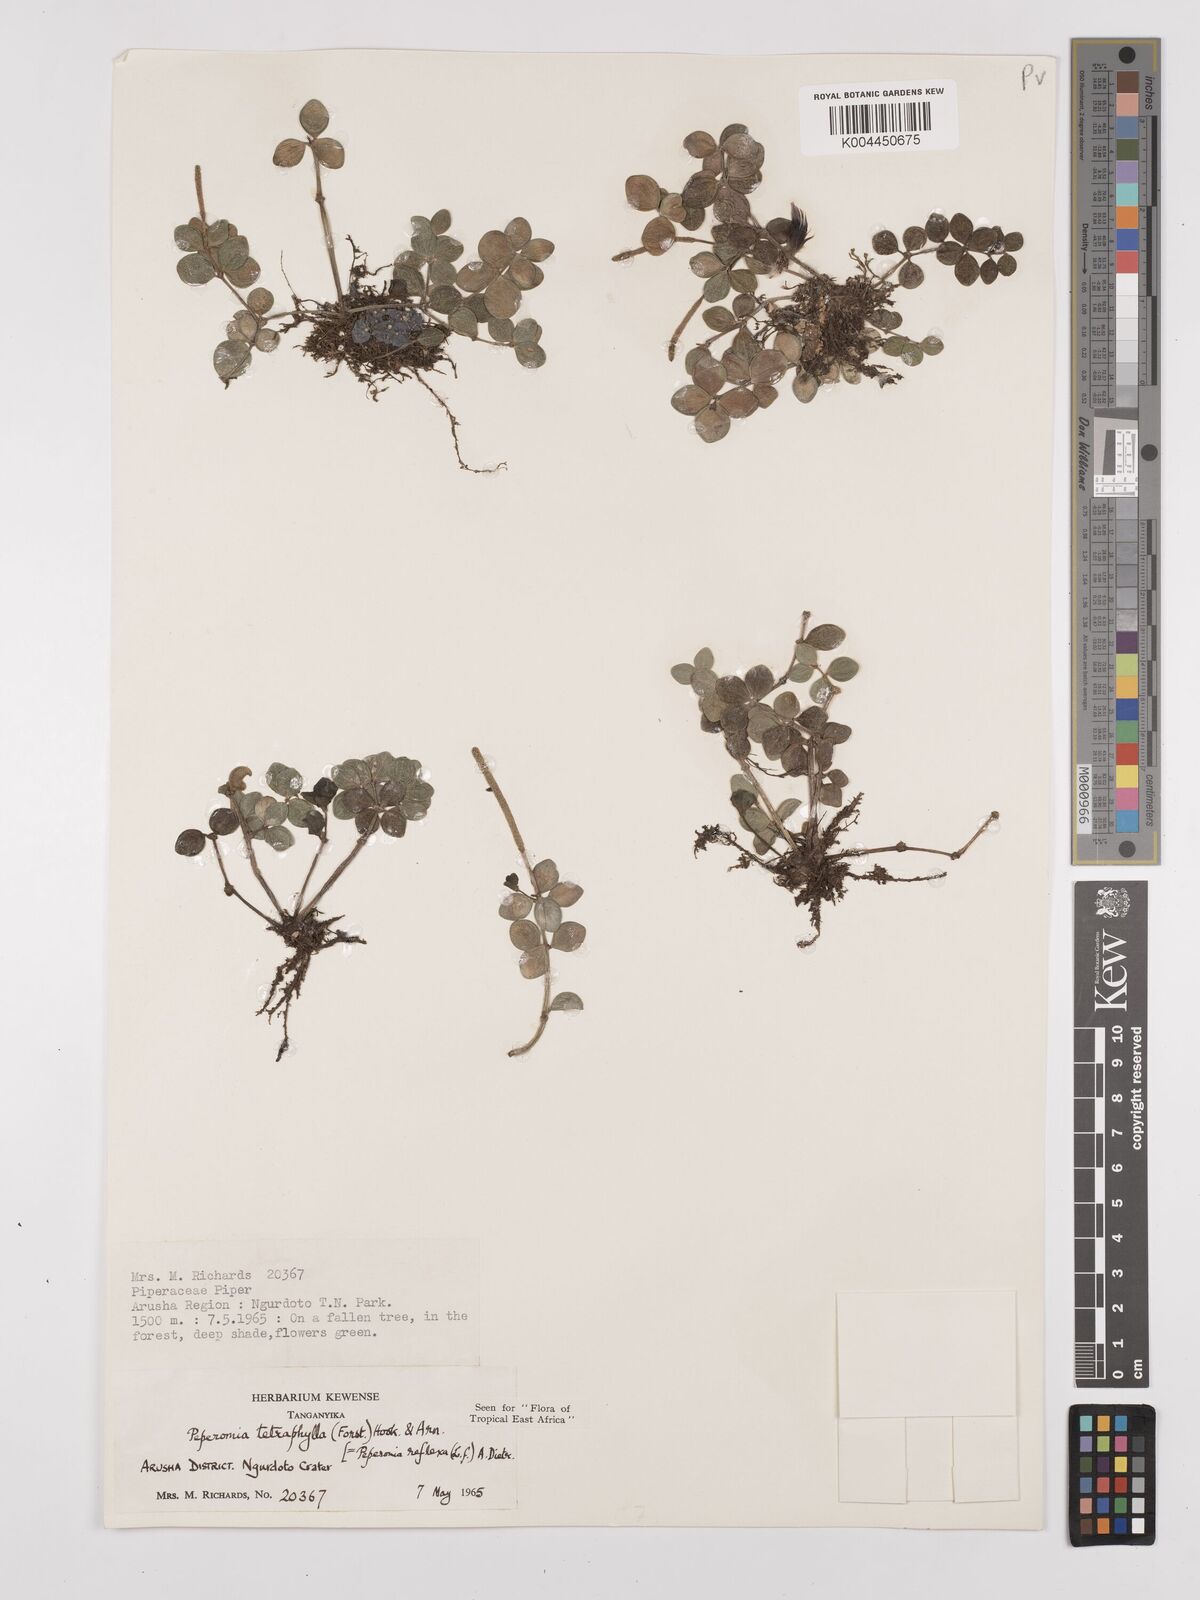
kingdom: Plantae
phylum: Tracheophyta
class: Magnoliopsida
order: Piperales
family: Piperaceae
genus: Peperomia
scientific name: Peperomia tetraphylla
